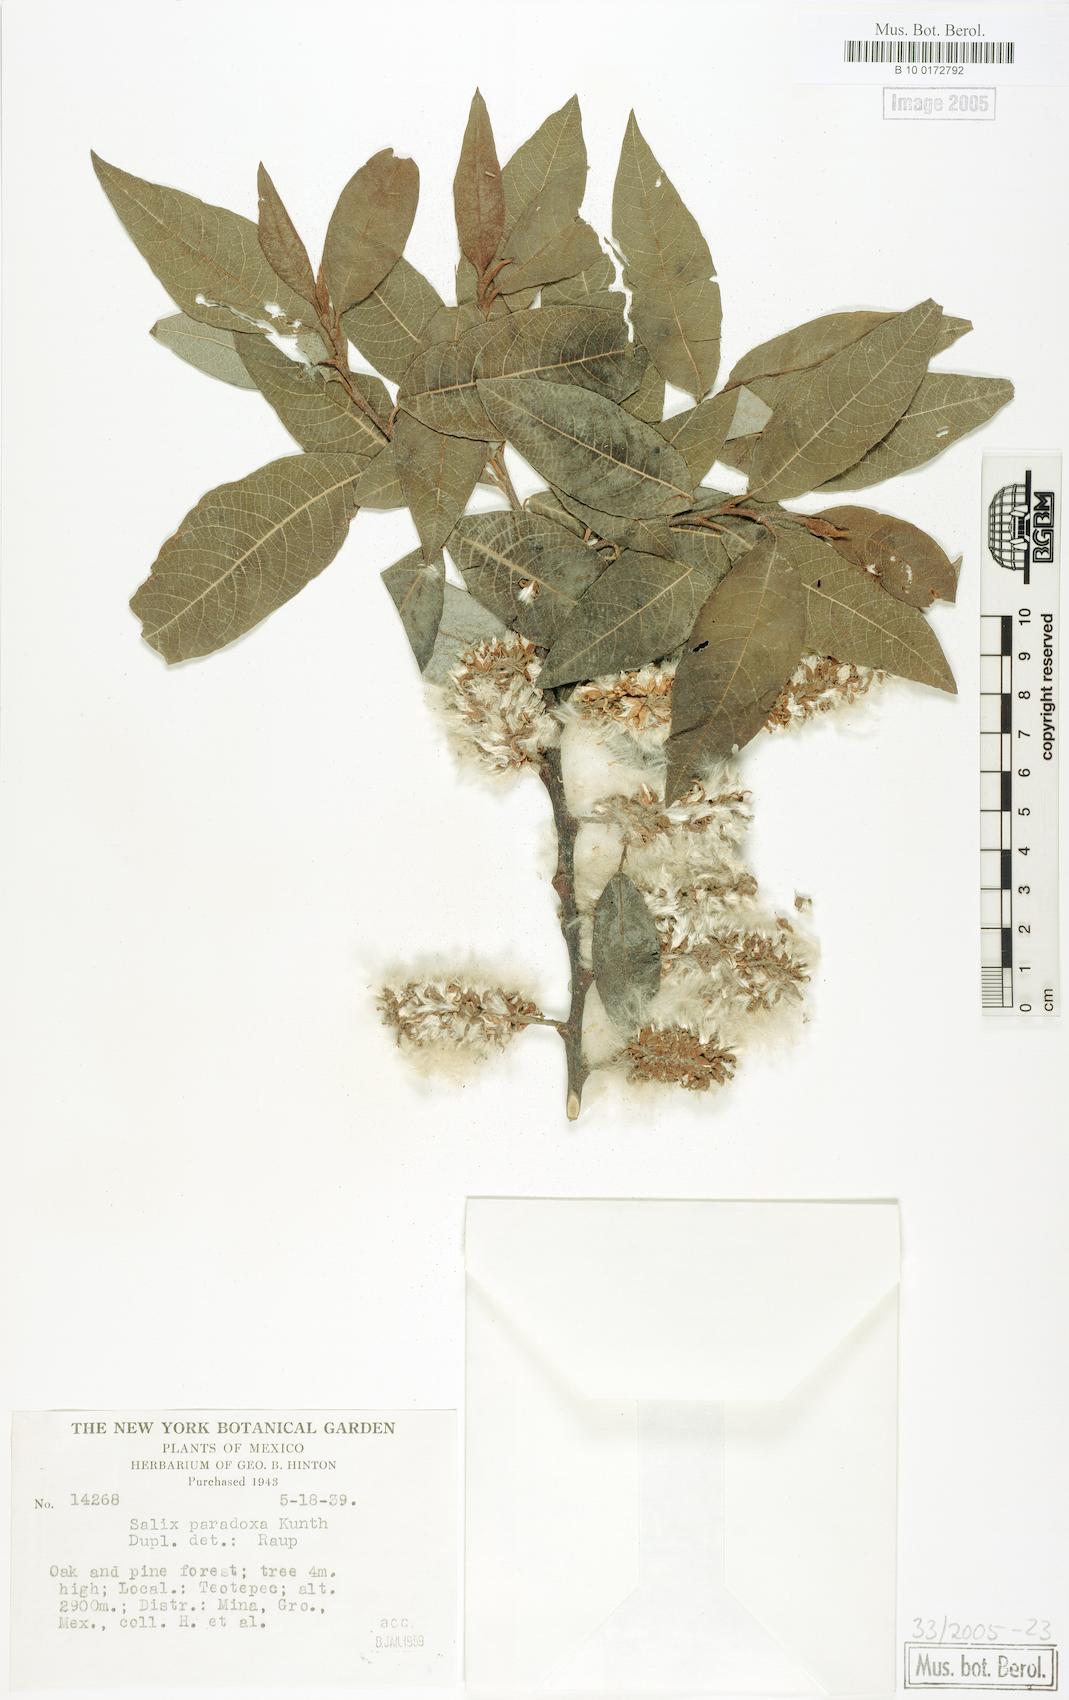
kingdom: Plantae
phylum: Tracheophyta
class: Magnoliopsida
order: Malpighiales
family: Salicaceae
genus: Salix
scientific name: Salix paradoxa
